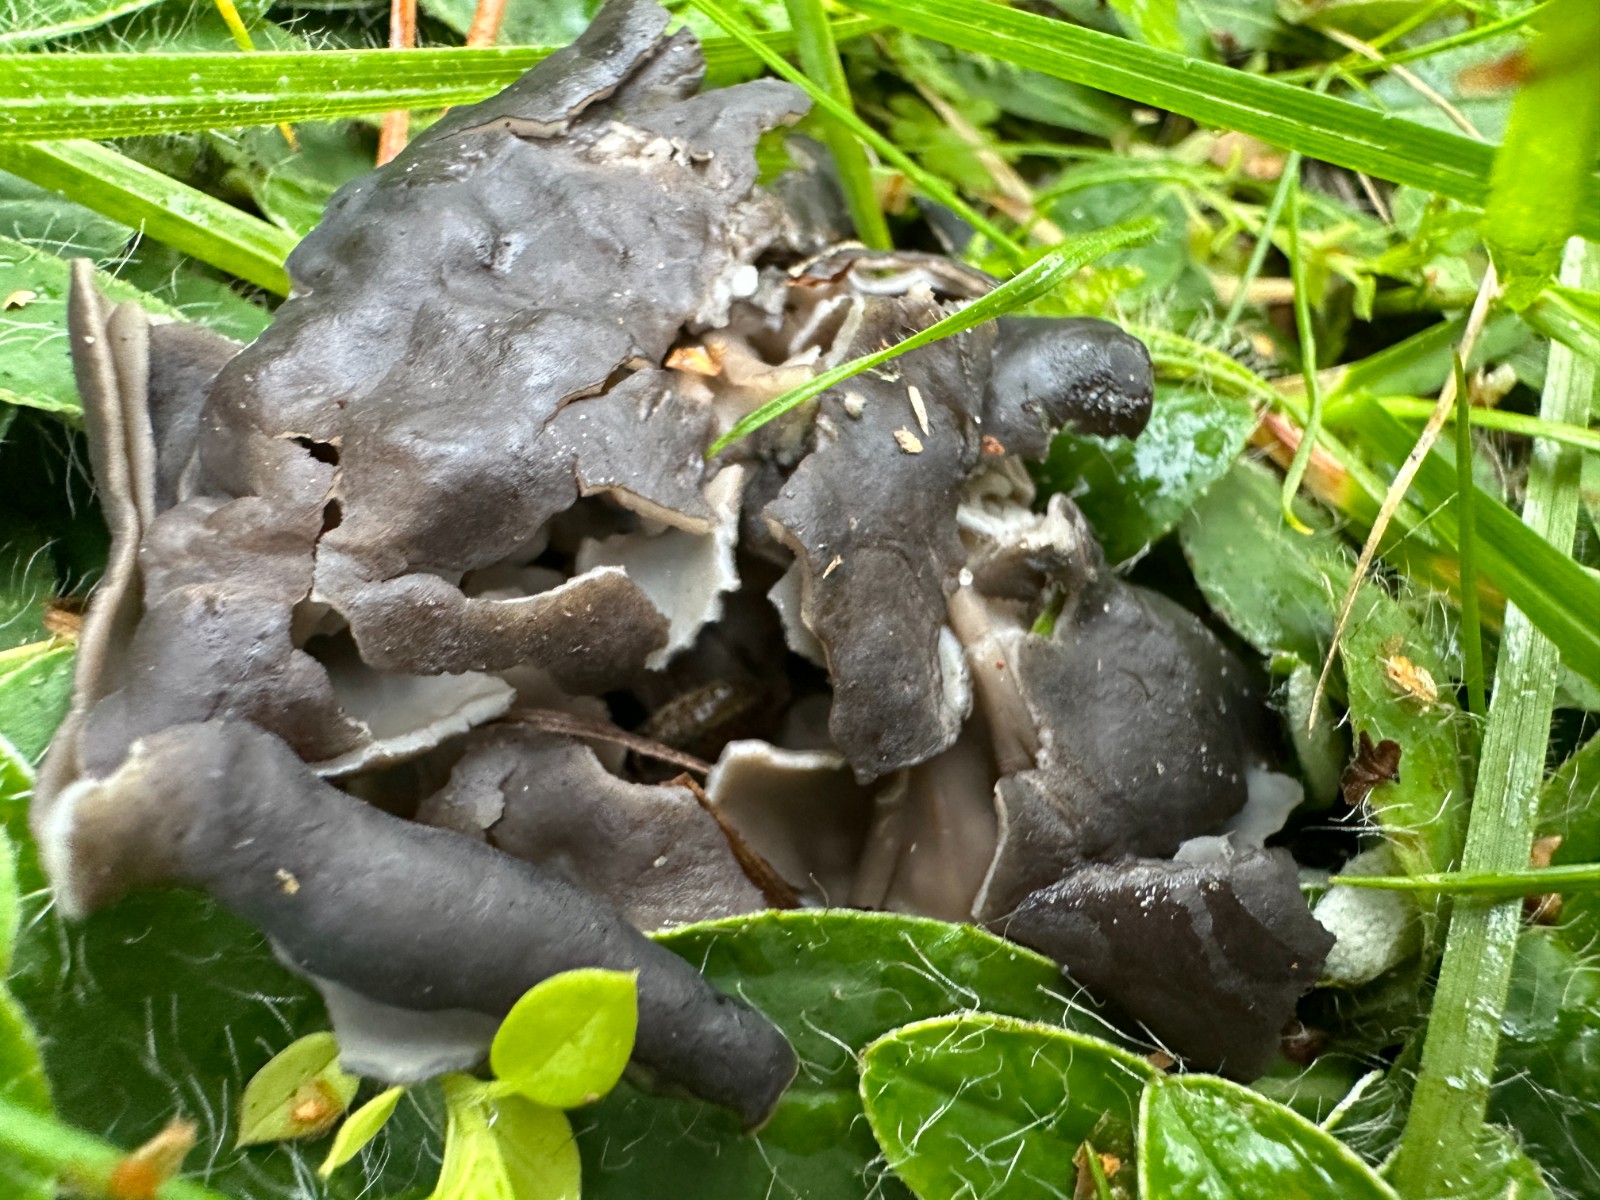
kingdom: Fungi
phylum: Ascomycota
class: Pezizomycetes
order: Pezizales
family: Helvellaceae
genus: Helvella
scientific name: Helvella lacunosa
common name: grubet foldhat
